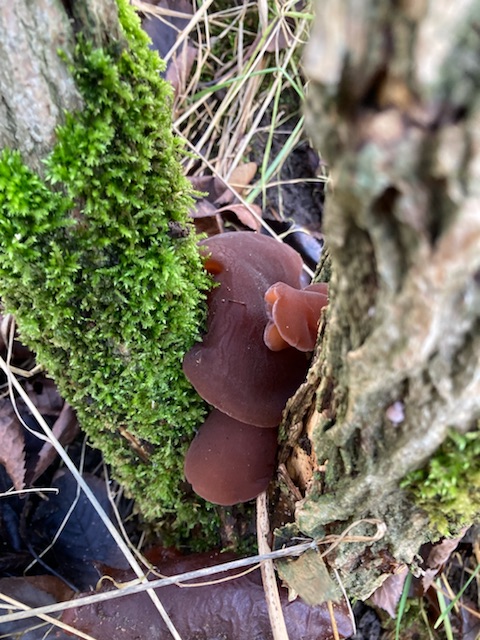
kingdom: Fungi
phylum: Basidiomycota
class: Agaricomycetes
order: Auriculariales
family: Auriculariaceae
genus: Auricularia
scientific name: Auricularia auricula-judae
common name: almindelig judasøre
